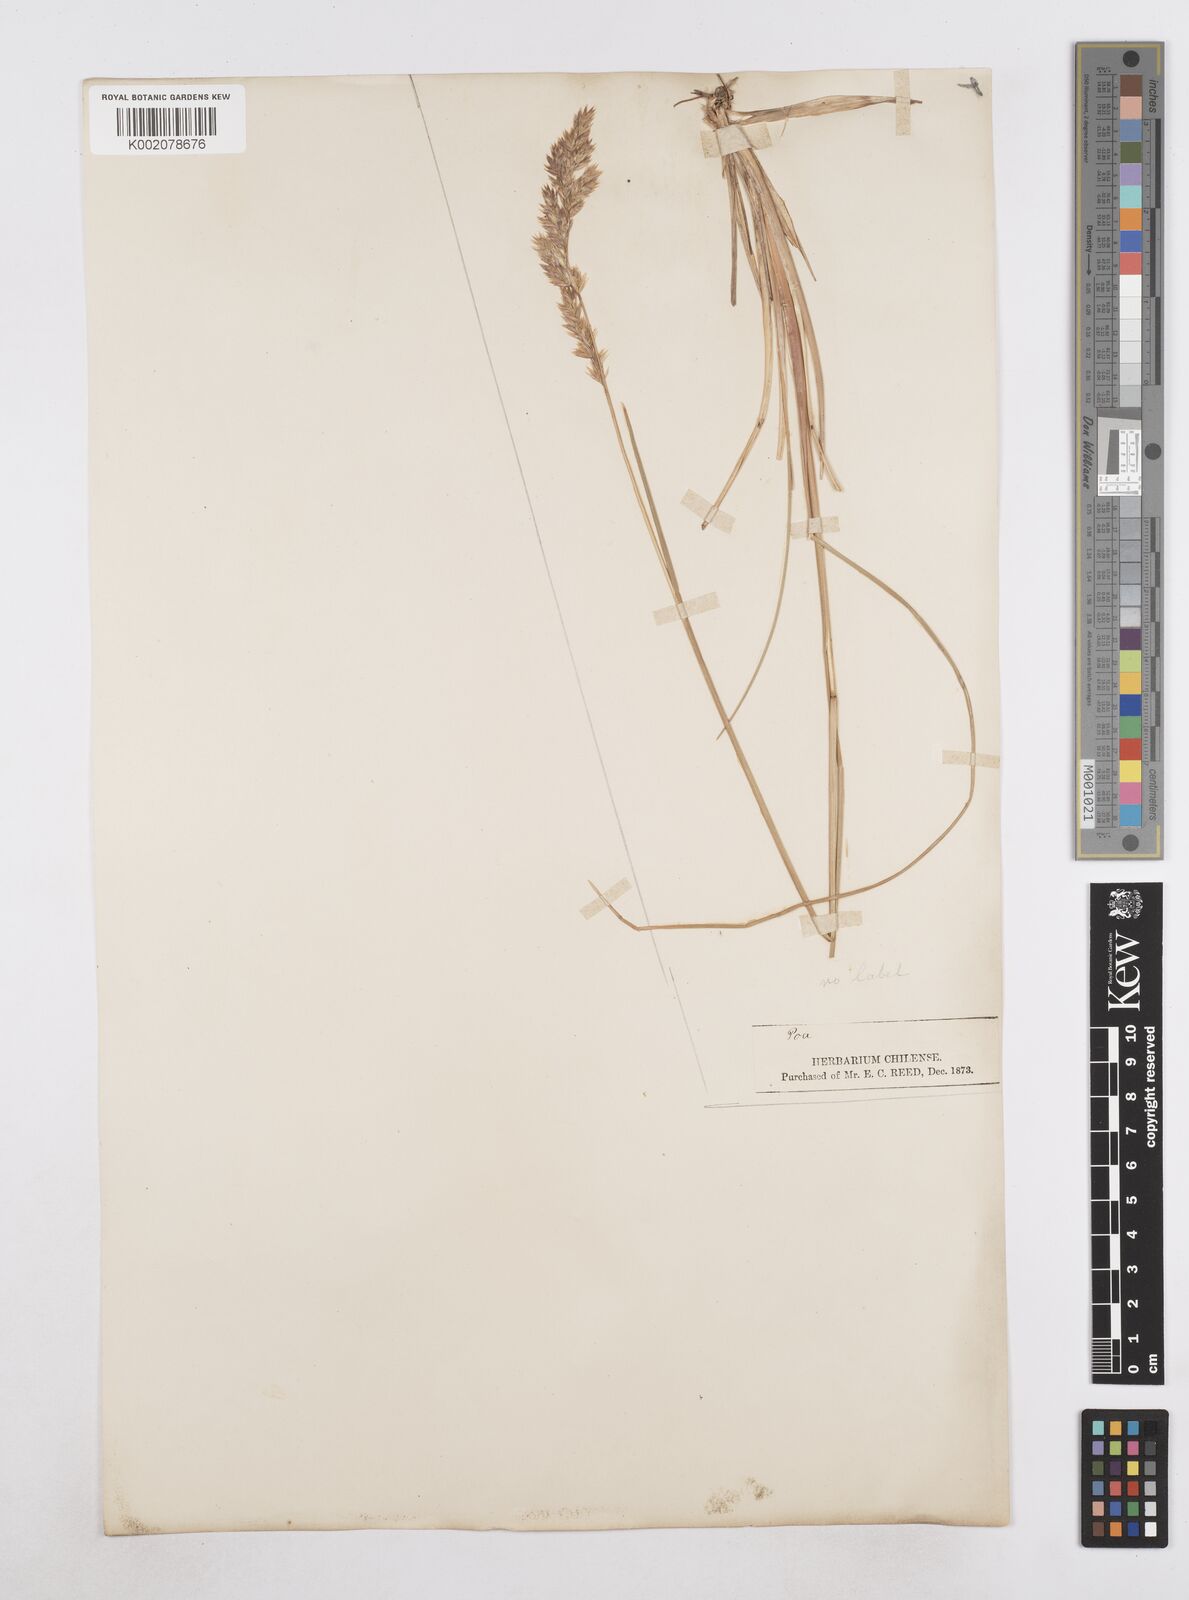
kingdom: Plantae
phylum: Tracheophyta
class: Liliopsida
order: Poales
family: Poaceae
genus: Poa
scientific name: Poa spiciformis
